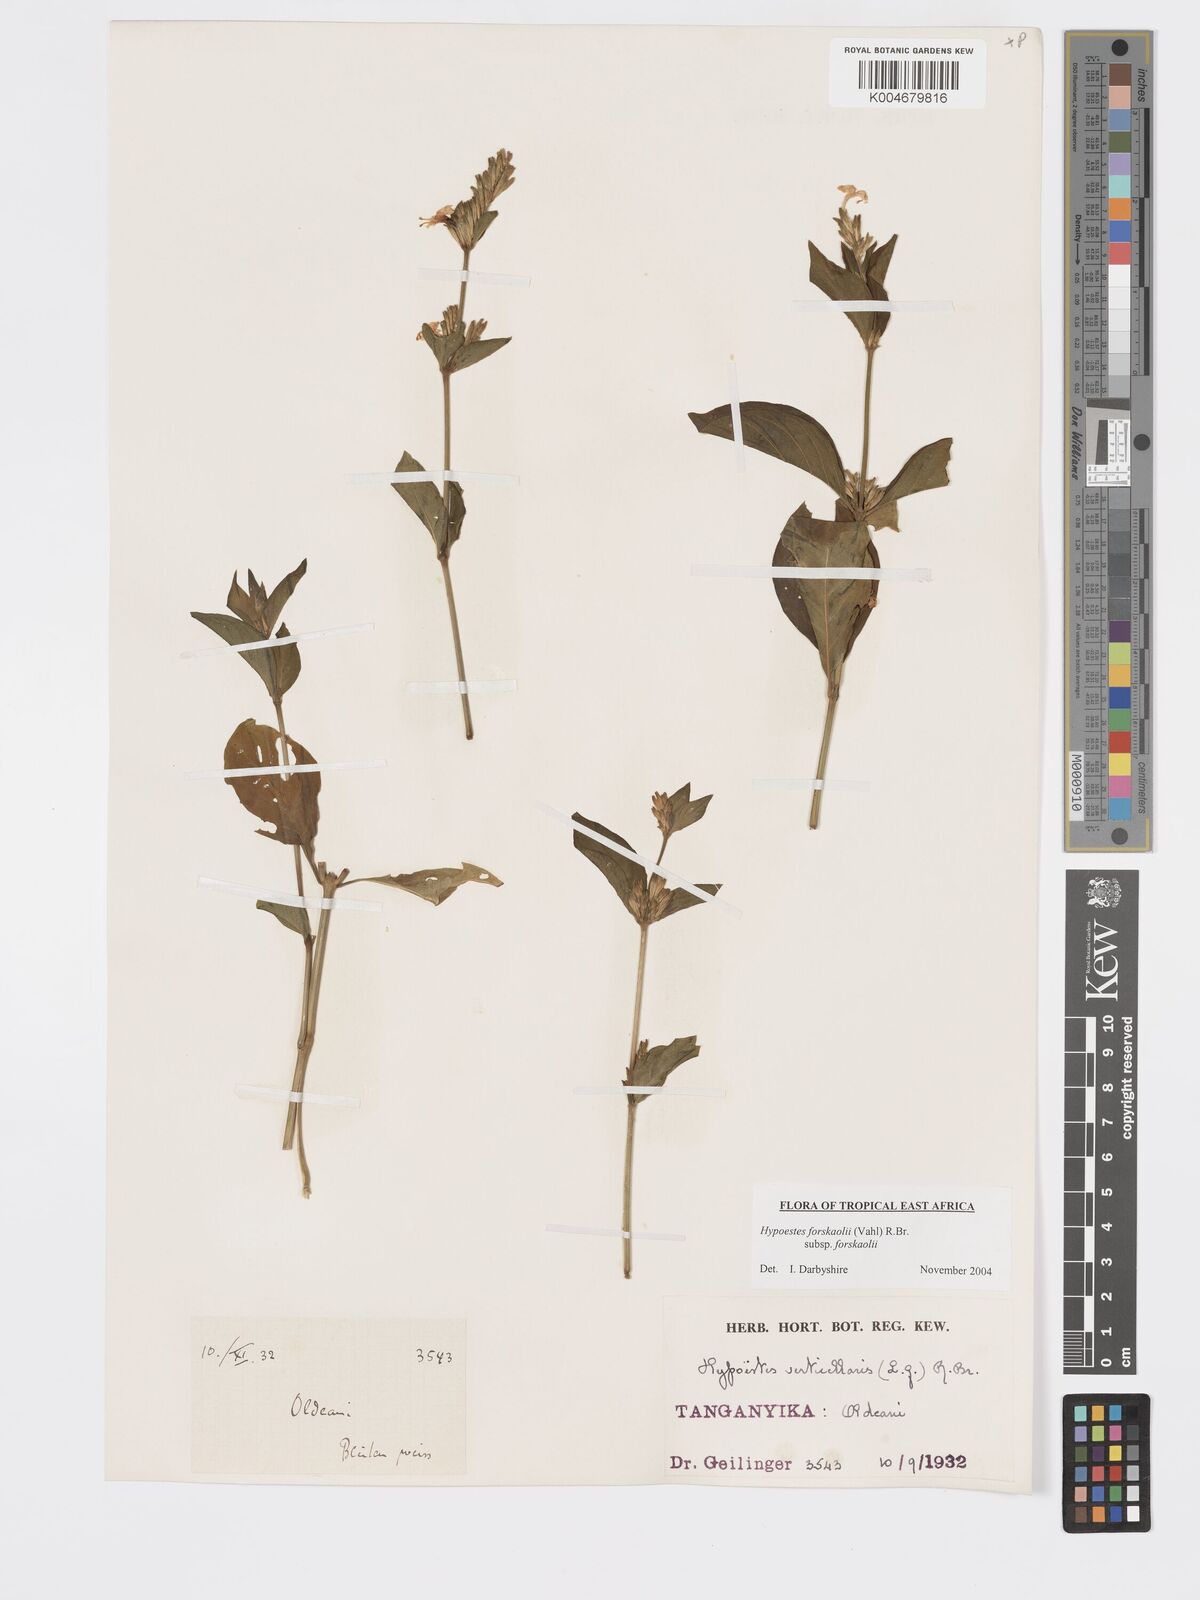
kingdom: Plantae
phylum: Tracheophyta
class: Magnoliopsida
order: Lamiales
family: Acanthaceae
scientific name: Acanthaceae
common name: Acanthaceae
